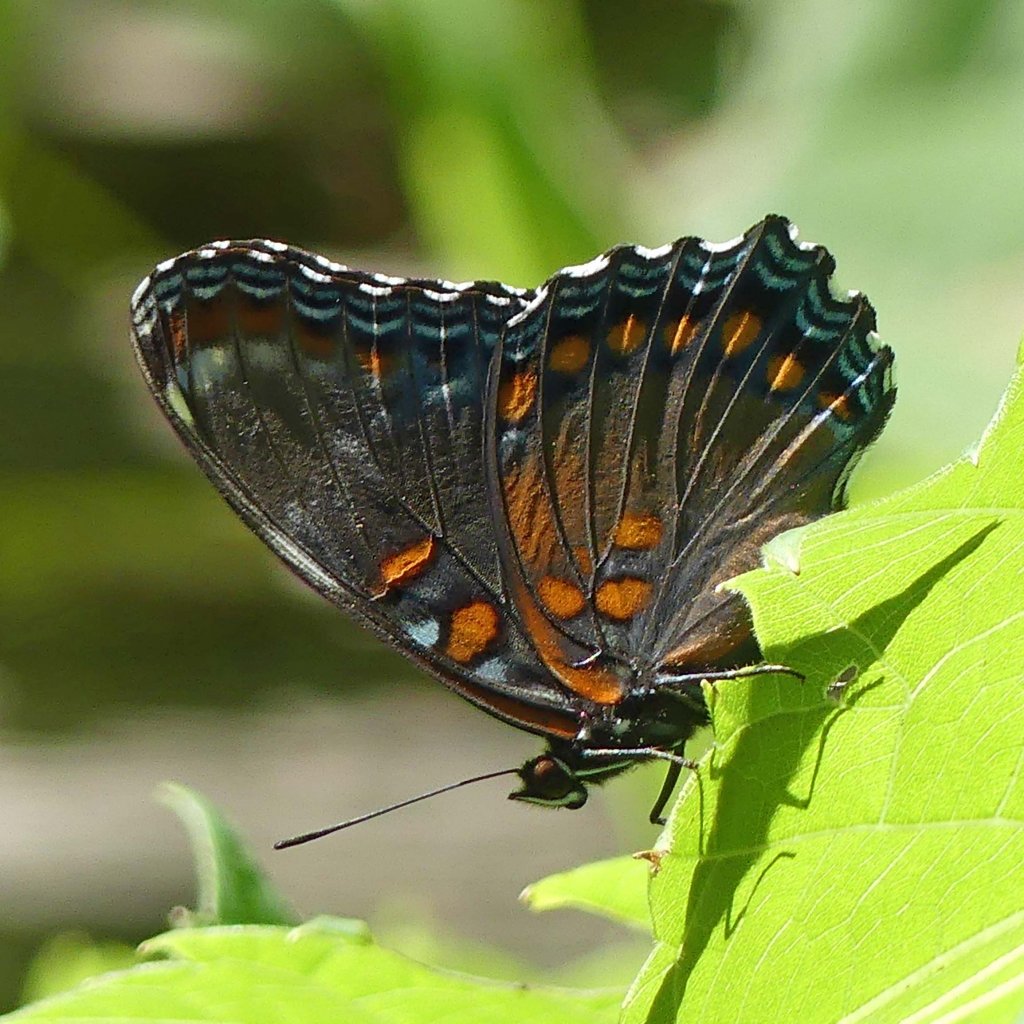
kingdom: Animalia
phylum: Arthropoda
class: Insecta
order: Lepidoptera
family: Nymphalidae
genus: Limenitis
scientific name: Limenitis astyanax
